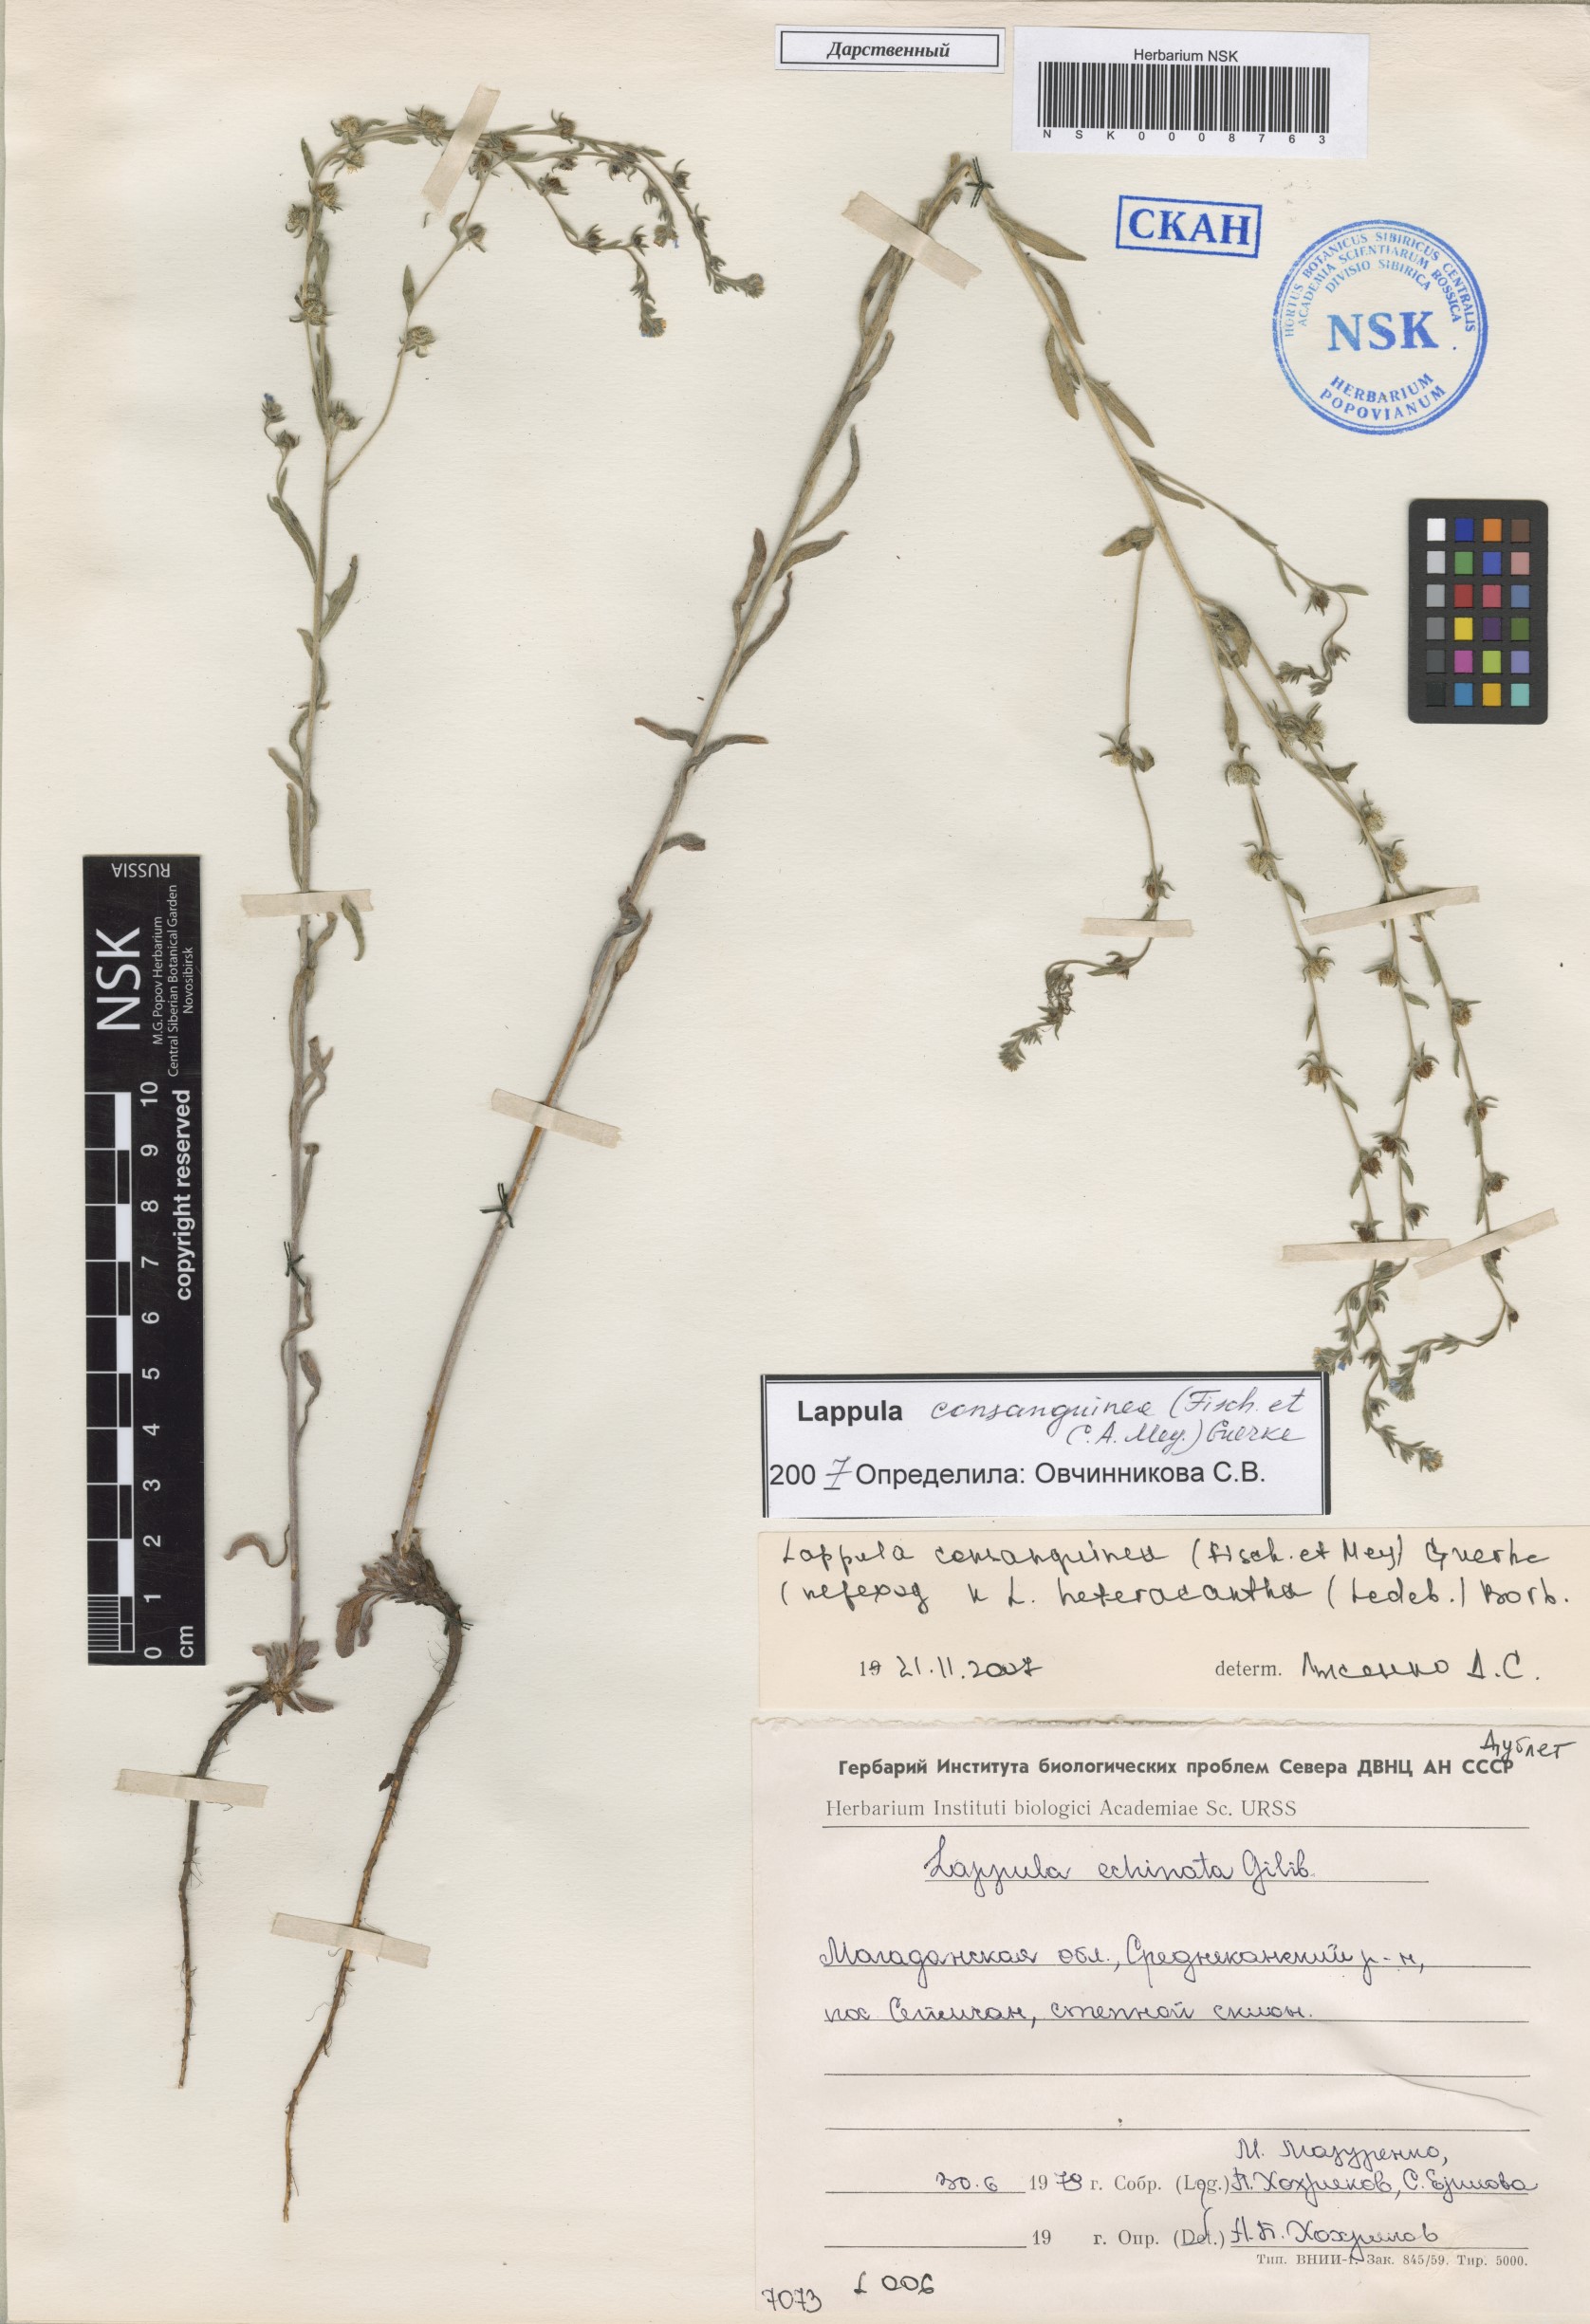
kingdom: Plantae
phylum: Tracheophyta
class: Magnoliopsida
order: Boraginales
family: Boraginaceae
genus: Lappula
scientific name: Lappula squarrosa
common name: European stickseed
